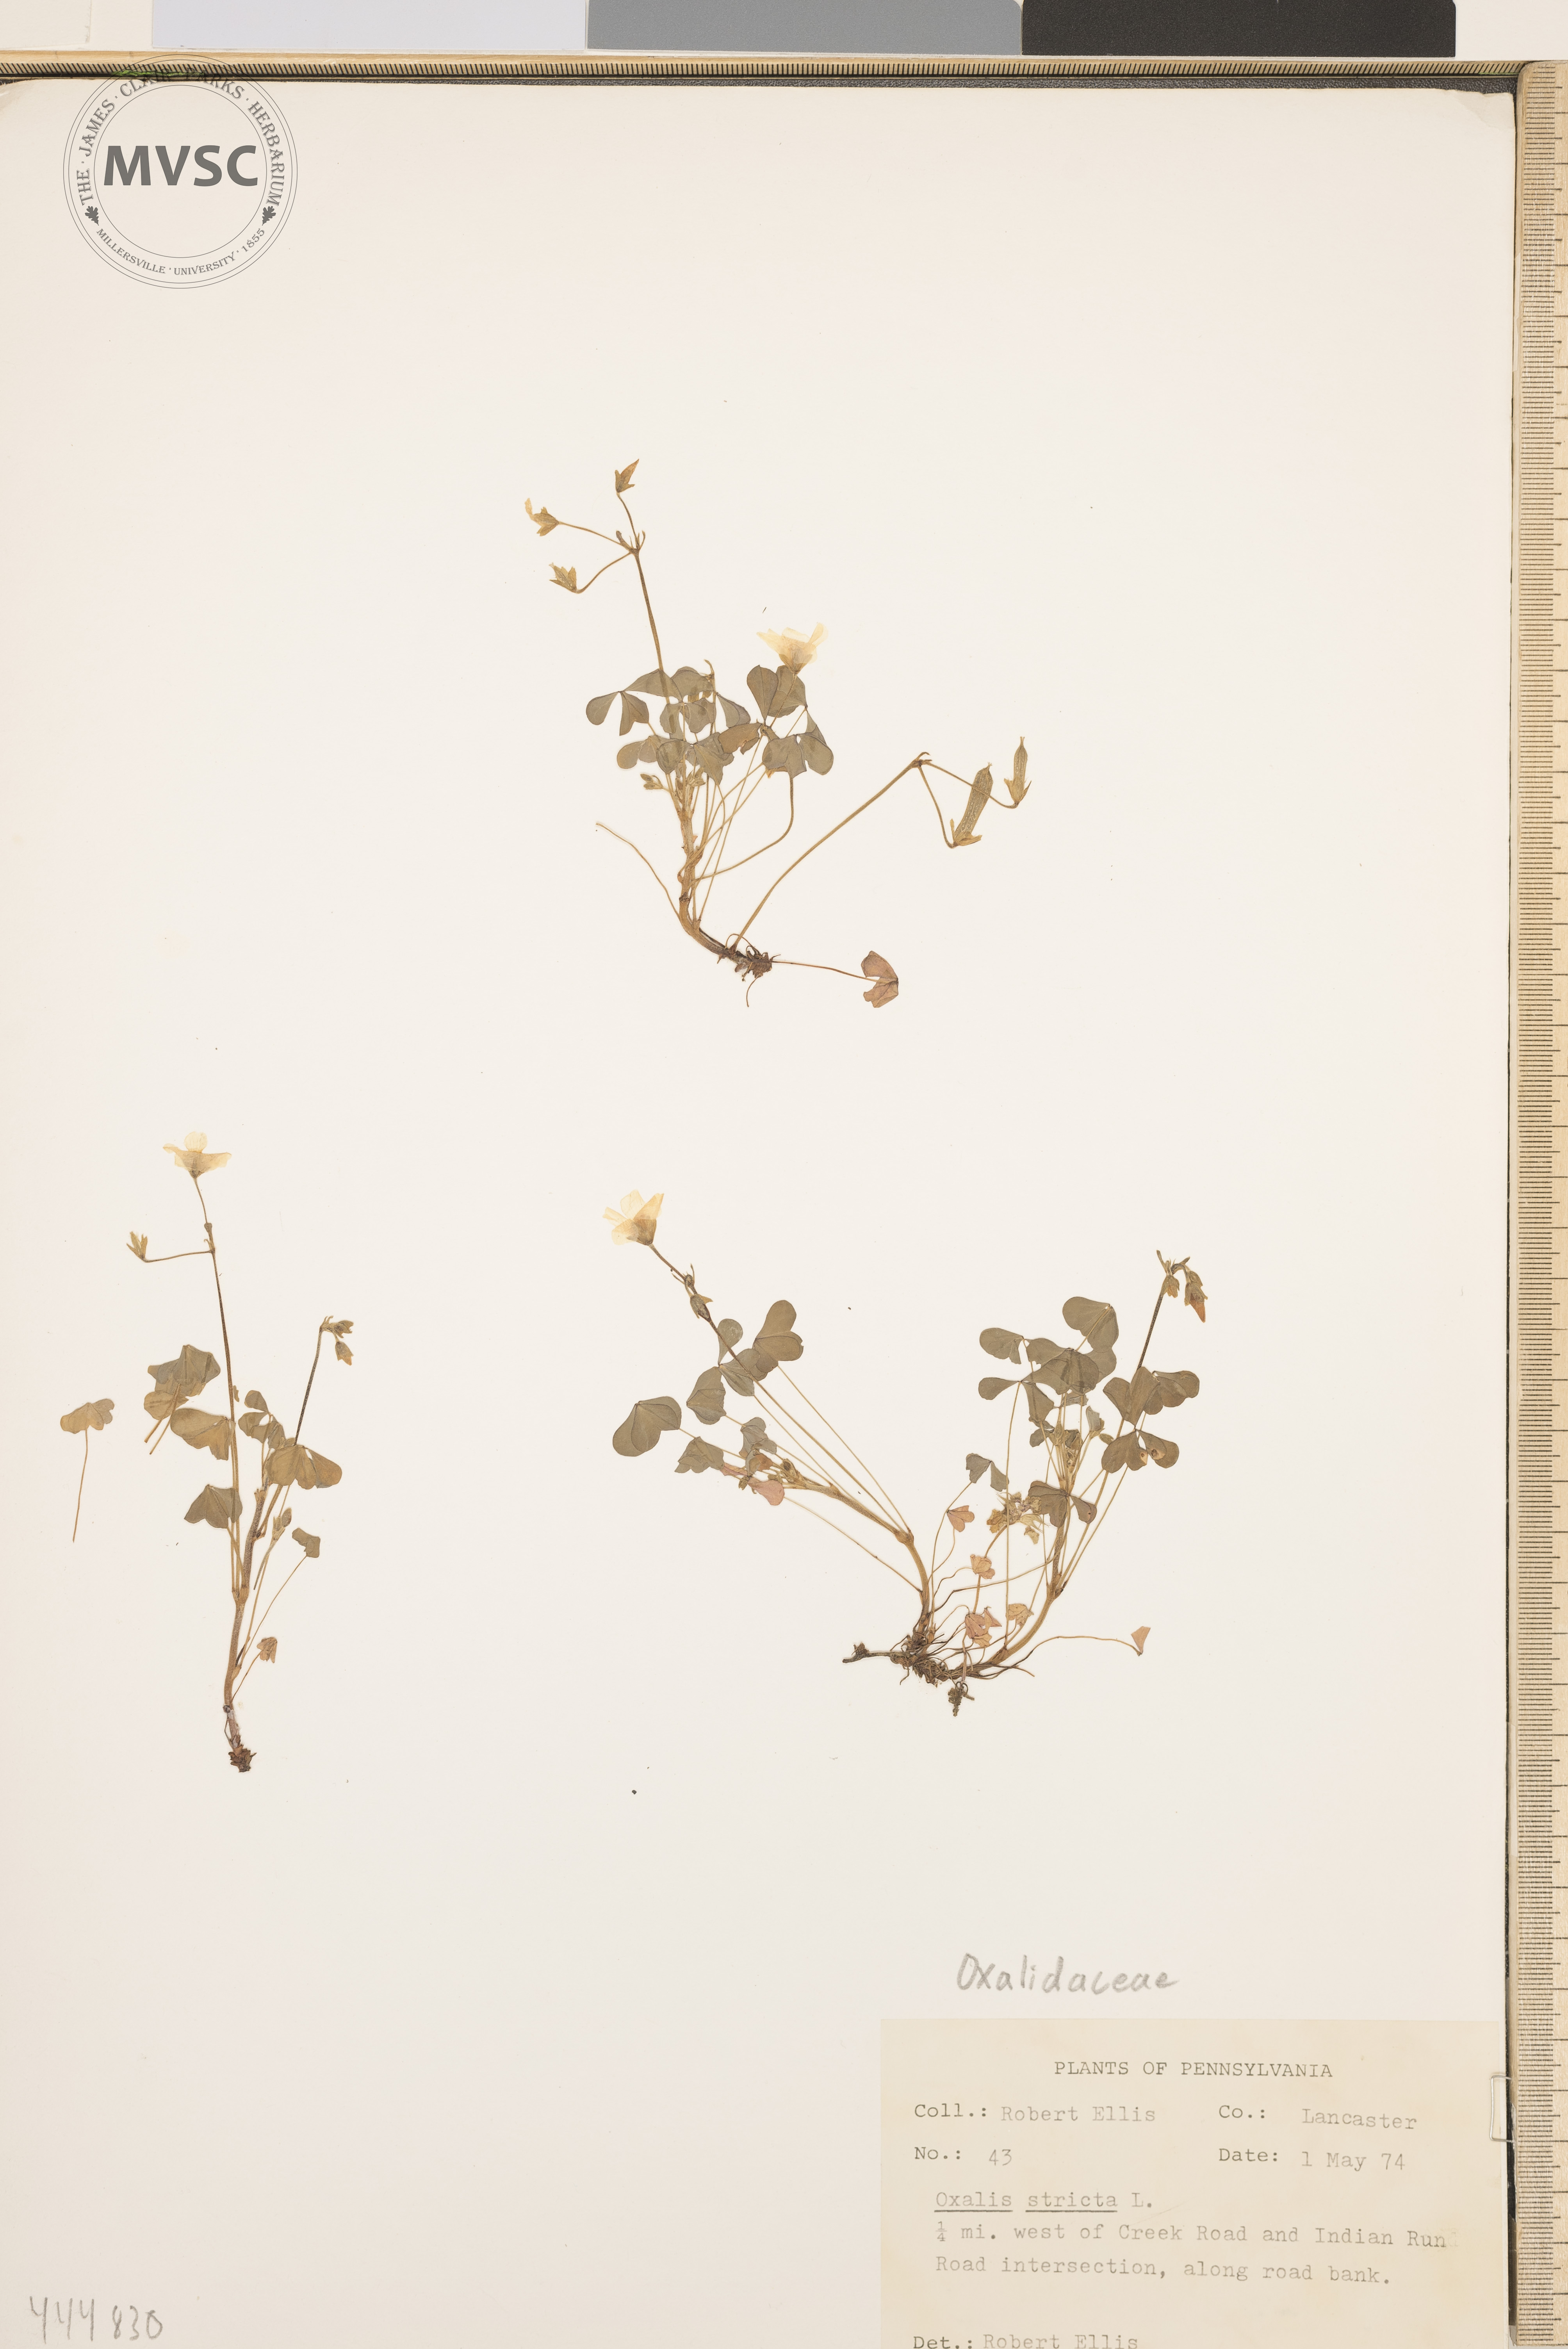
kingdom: Plantae
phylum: Tracheophyta
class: Magnoliopsida
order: Oxalidales
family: Oxalidaceae
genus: Oxalis
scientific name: Oxalis stricta
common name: Upright yellow-sorrel
